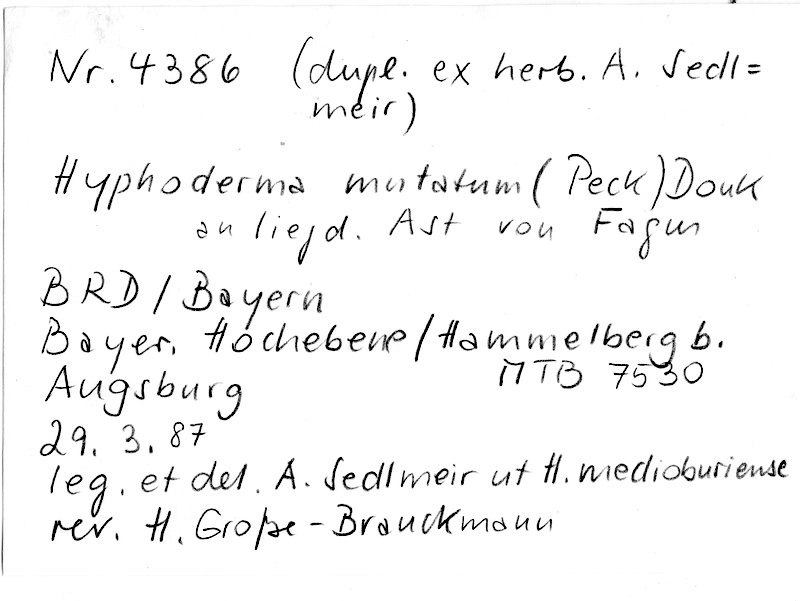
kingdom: Fungi
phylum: Basidiomycota
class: Agaricomycetes
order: Polyporales
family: Hyphodermataceae
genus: Mutatoderma
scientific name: Mutatoderma mutatum
